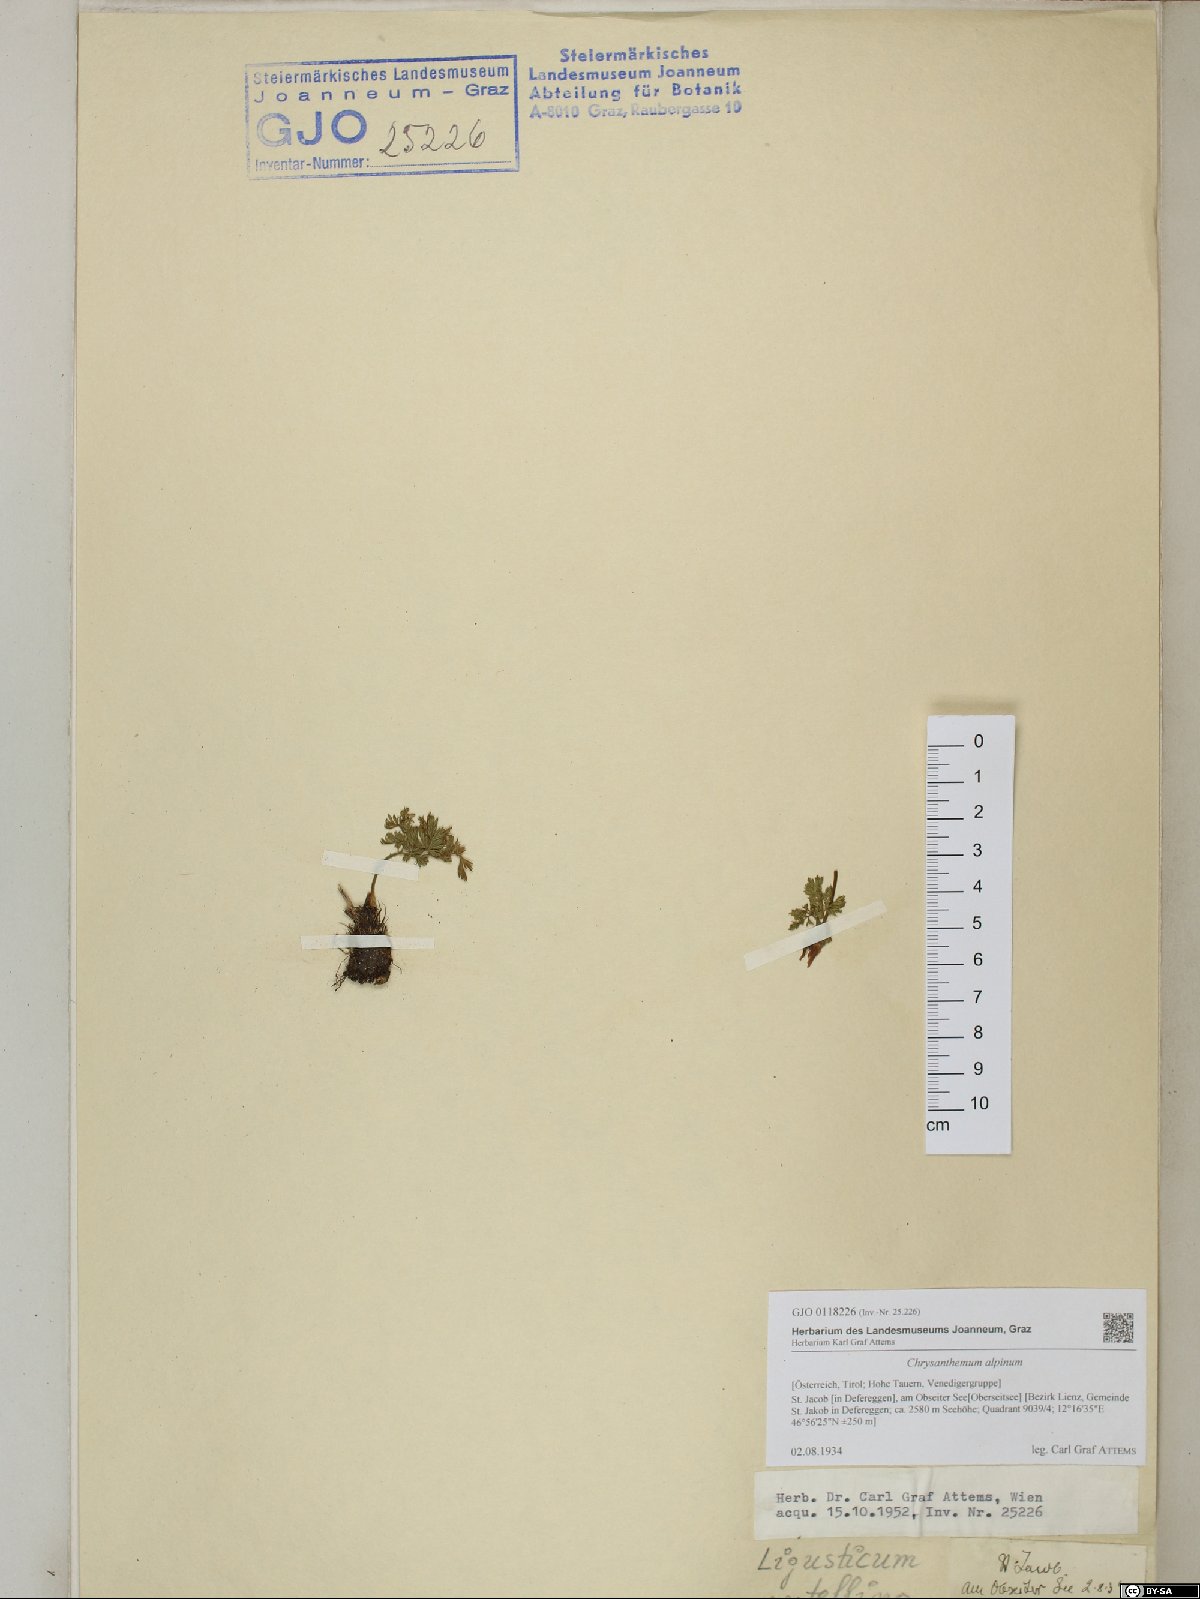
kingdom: Plantae
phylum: Tracheophyta
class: Magnoliopsida
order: Asterales
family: Asteraceae
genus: Leucanthemopsis
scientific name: Leucanthemopsis alpina
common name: Alpine moon daisy
